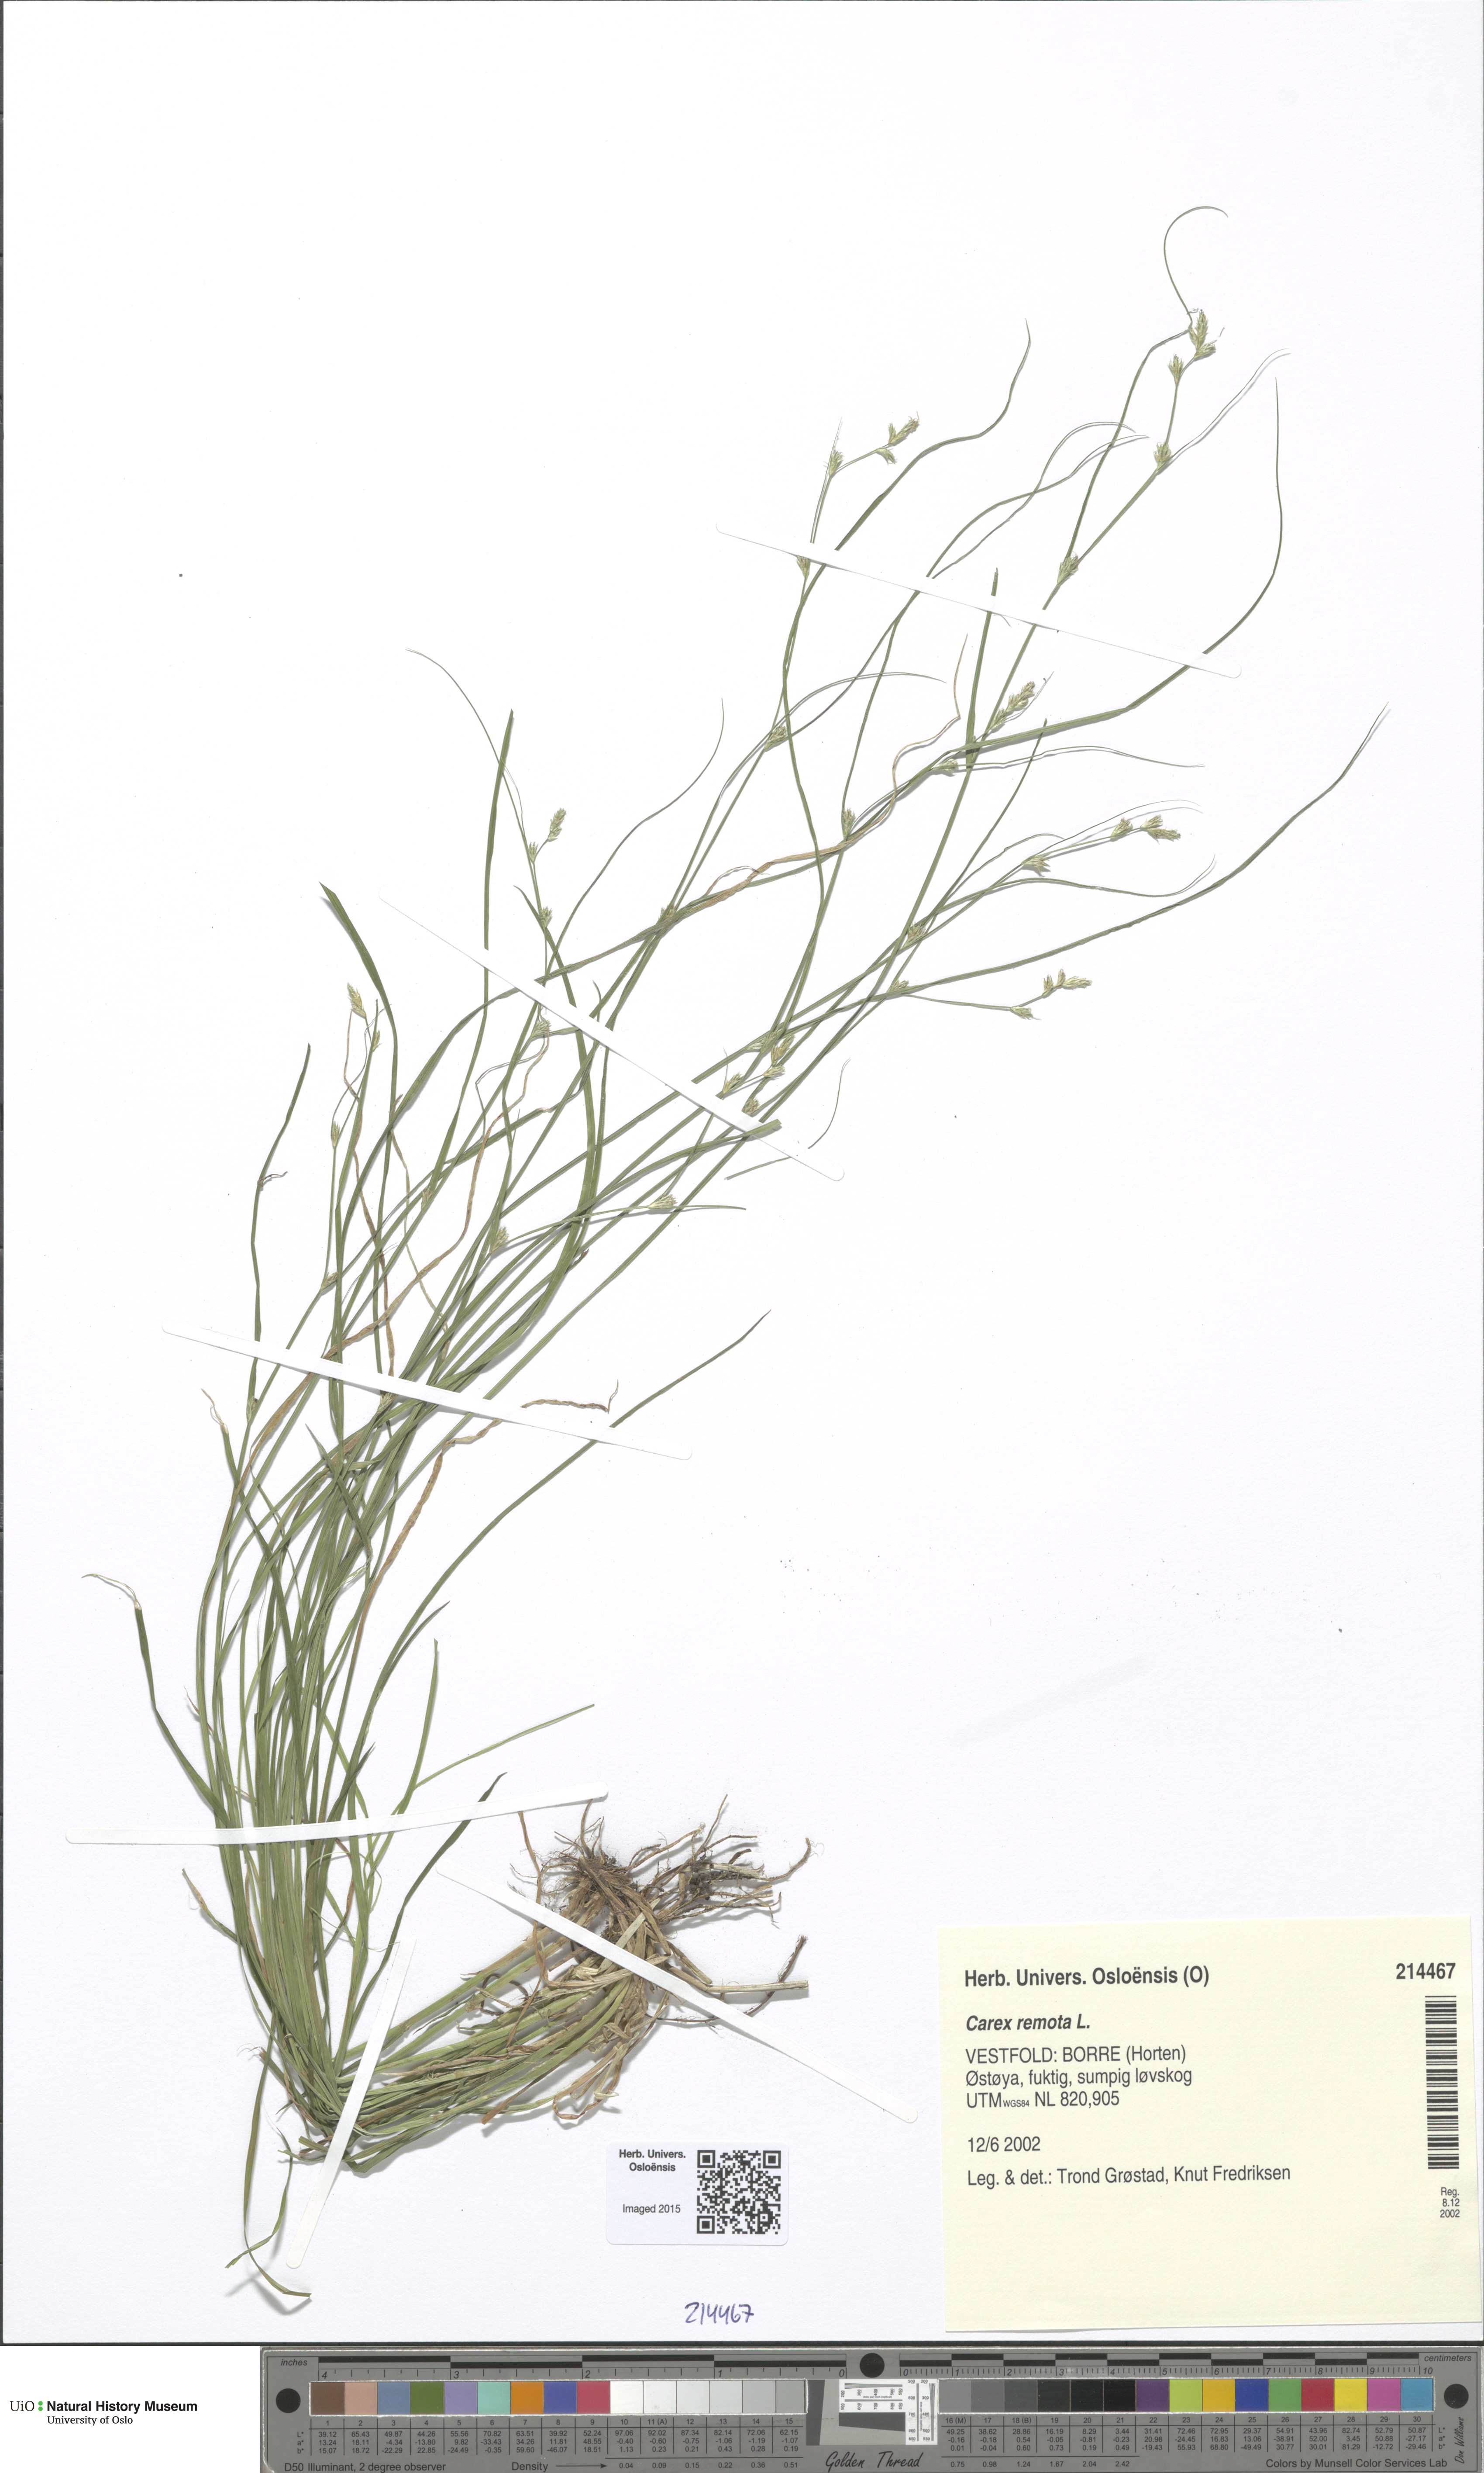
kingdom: Plantae
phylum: Tracheophyta
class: Liliopsida
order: Poales
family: Cyperaceae
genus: Carex
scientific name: Carex remota
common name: Remote sedge
